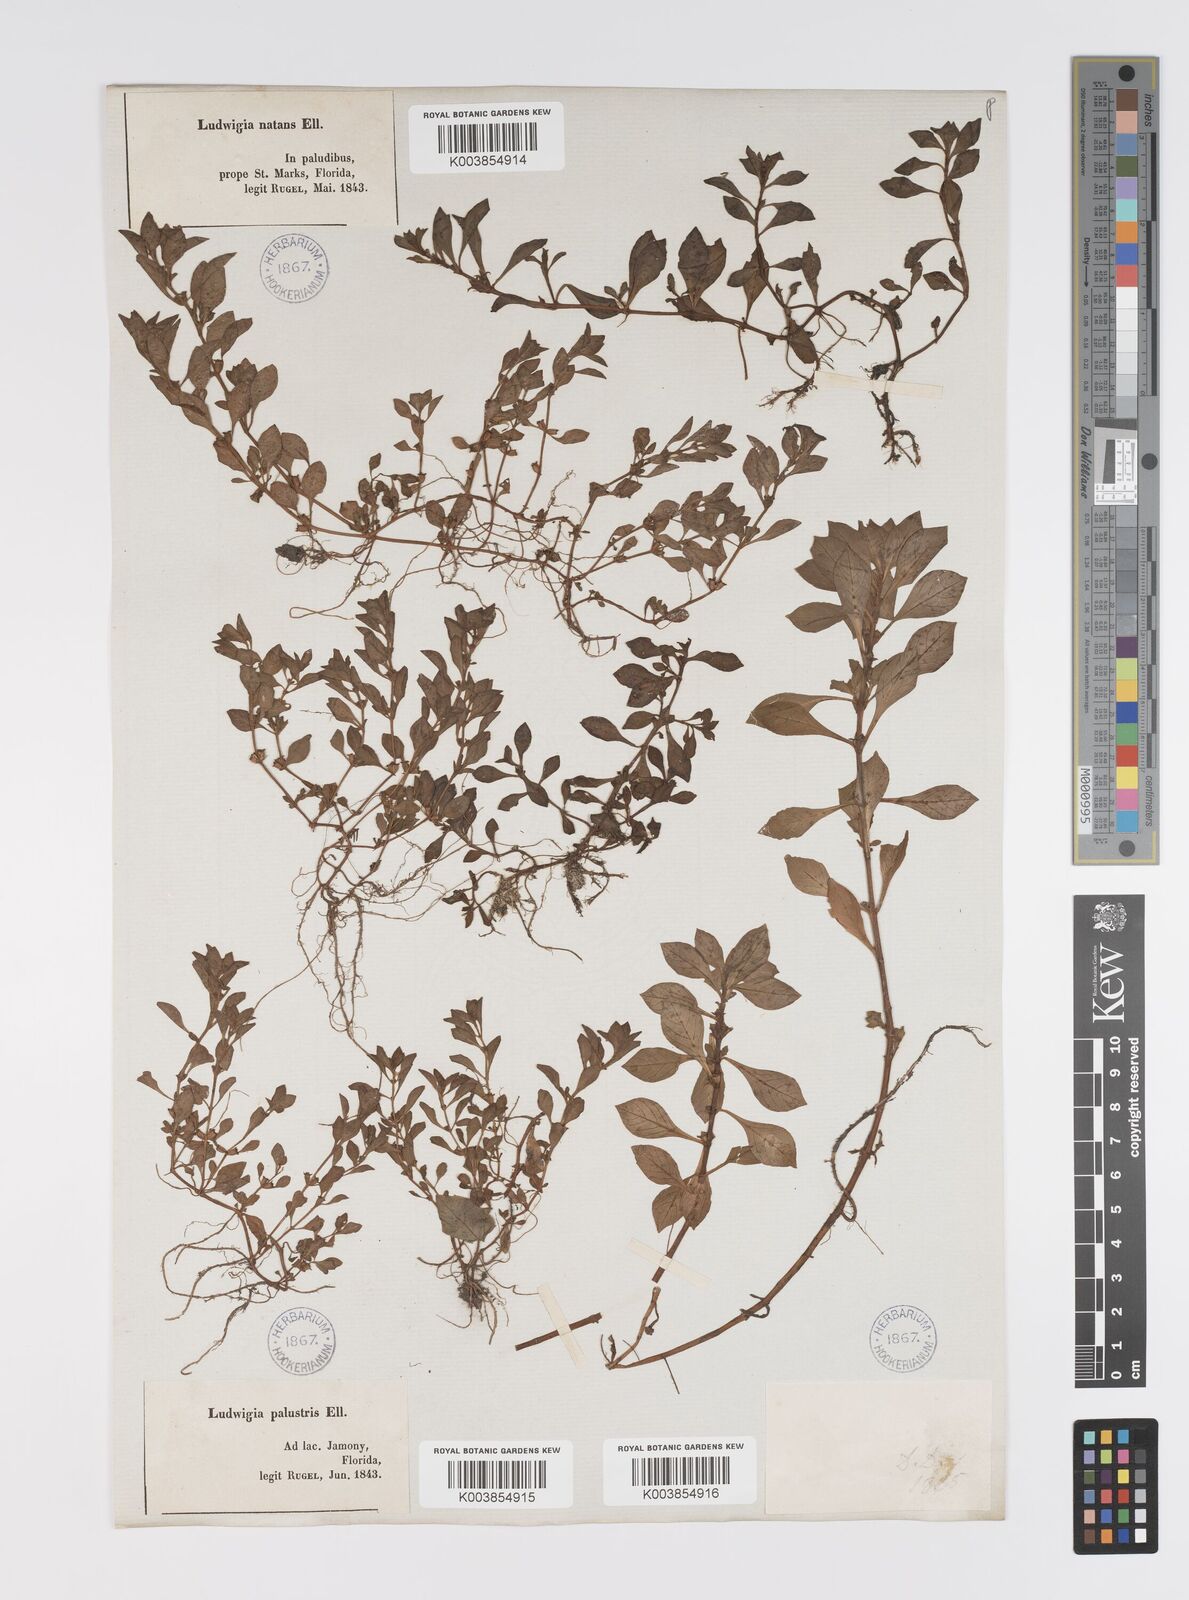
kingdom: Plantae
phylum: Tracheophyta
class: Magnoliopsida
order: Myrtales
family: Onagraceae
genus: Ludwigia
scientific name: Ludwigia palustris
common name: Hampshire-purslane
